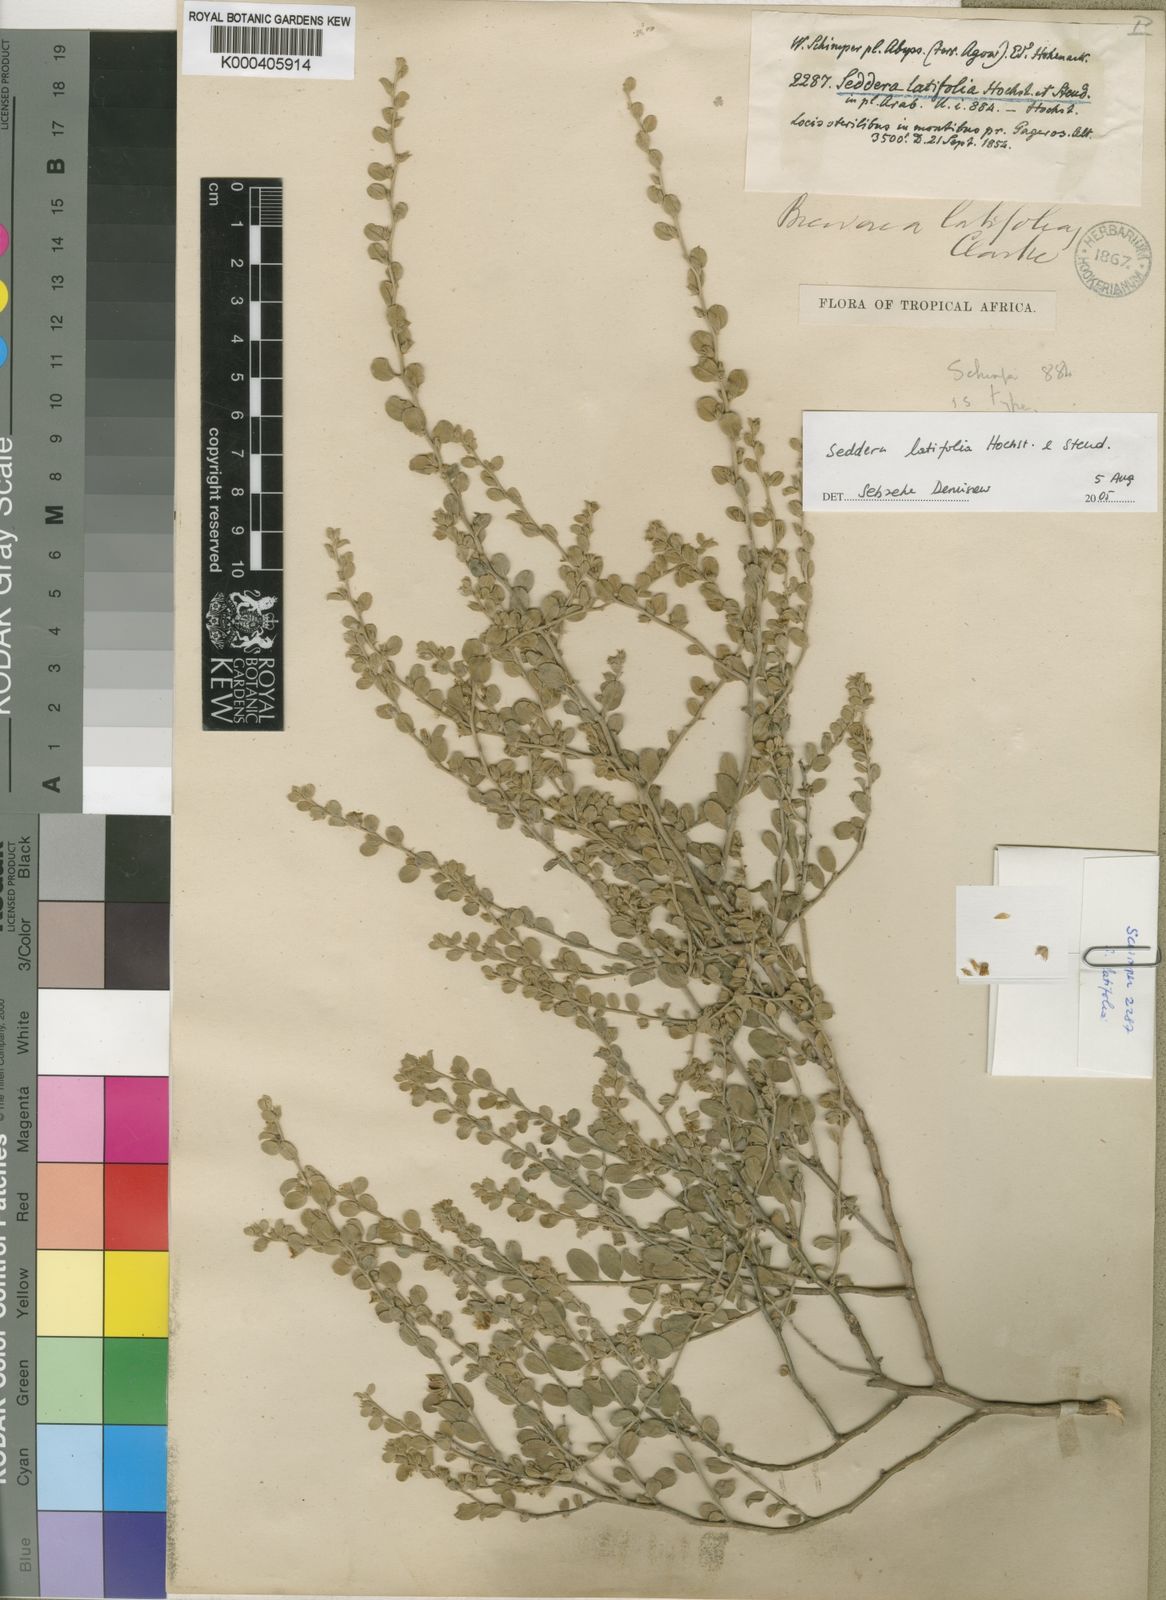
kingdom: Plantae
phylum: Tracheophyta
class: Magnoliopsida
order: Solanales
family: Convolvulaceae
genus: Seddera
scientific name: Seddera latifolia
